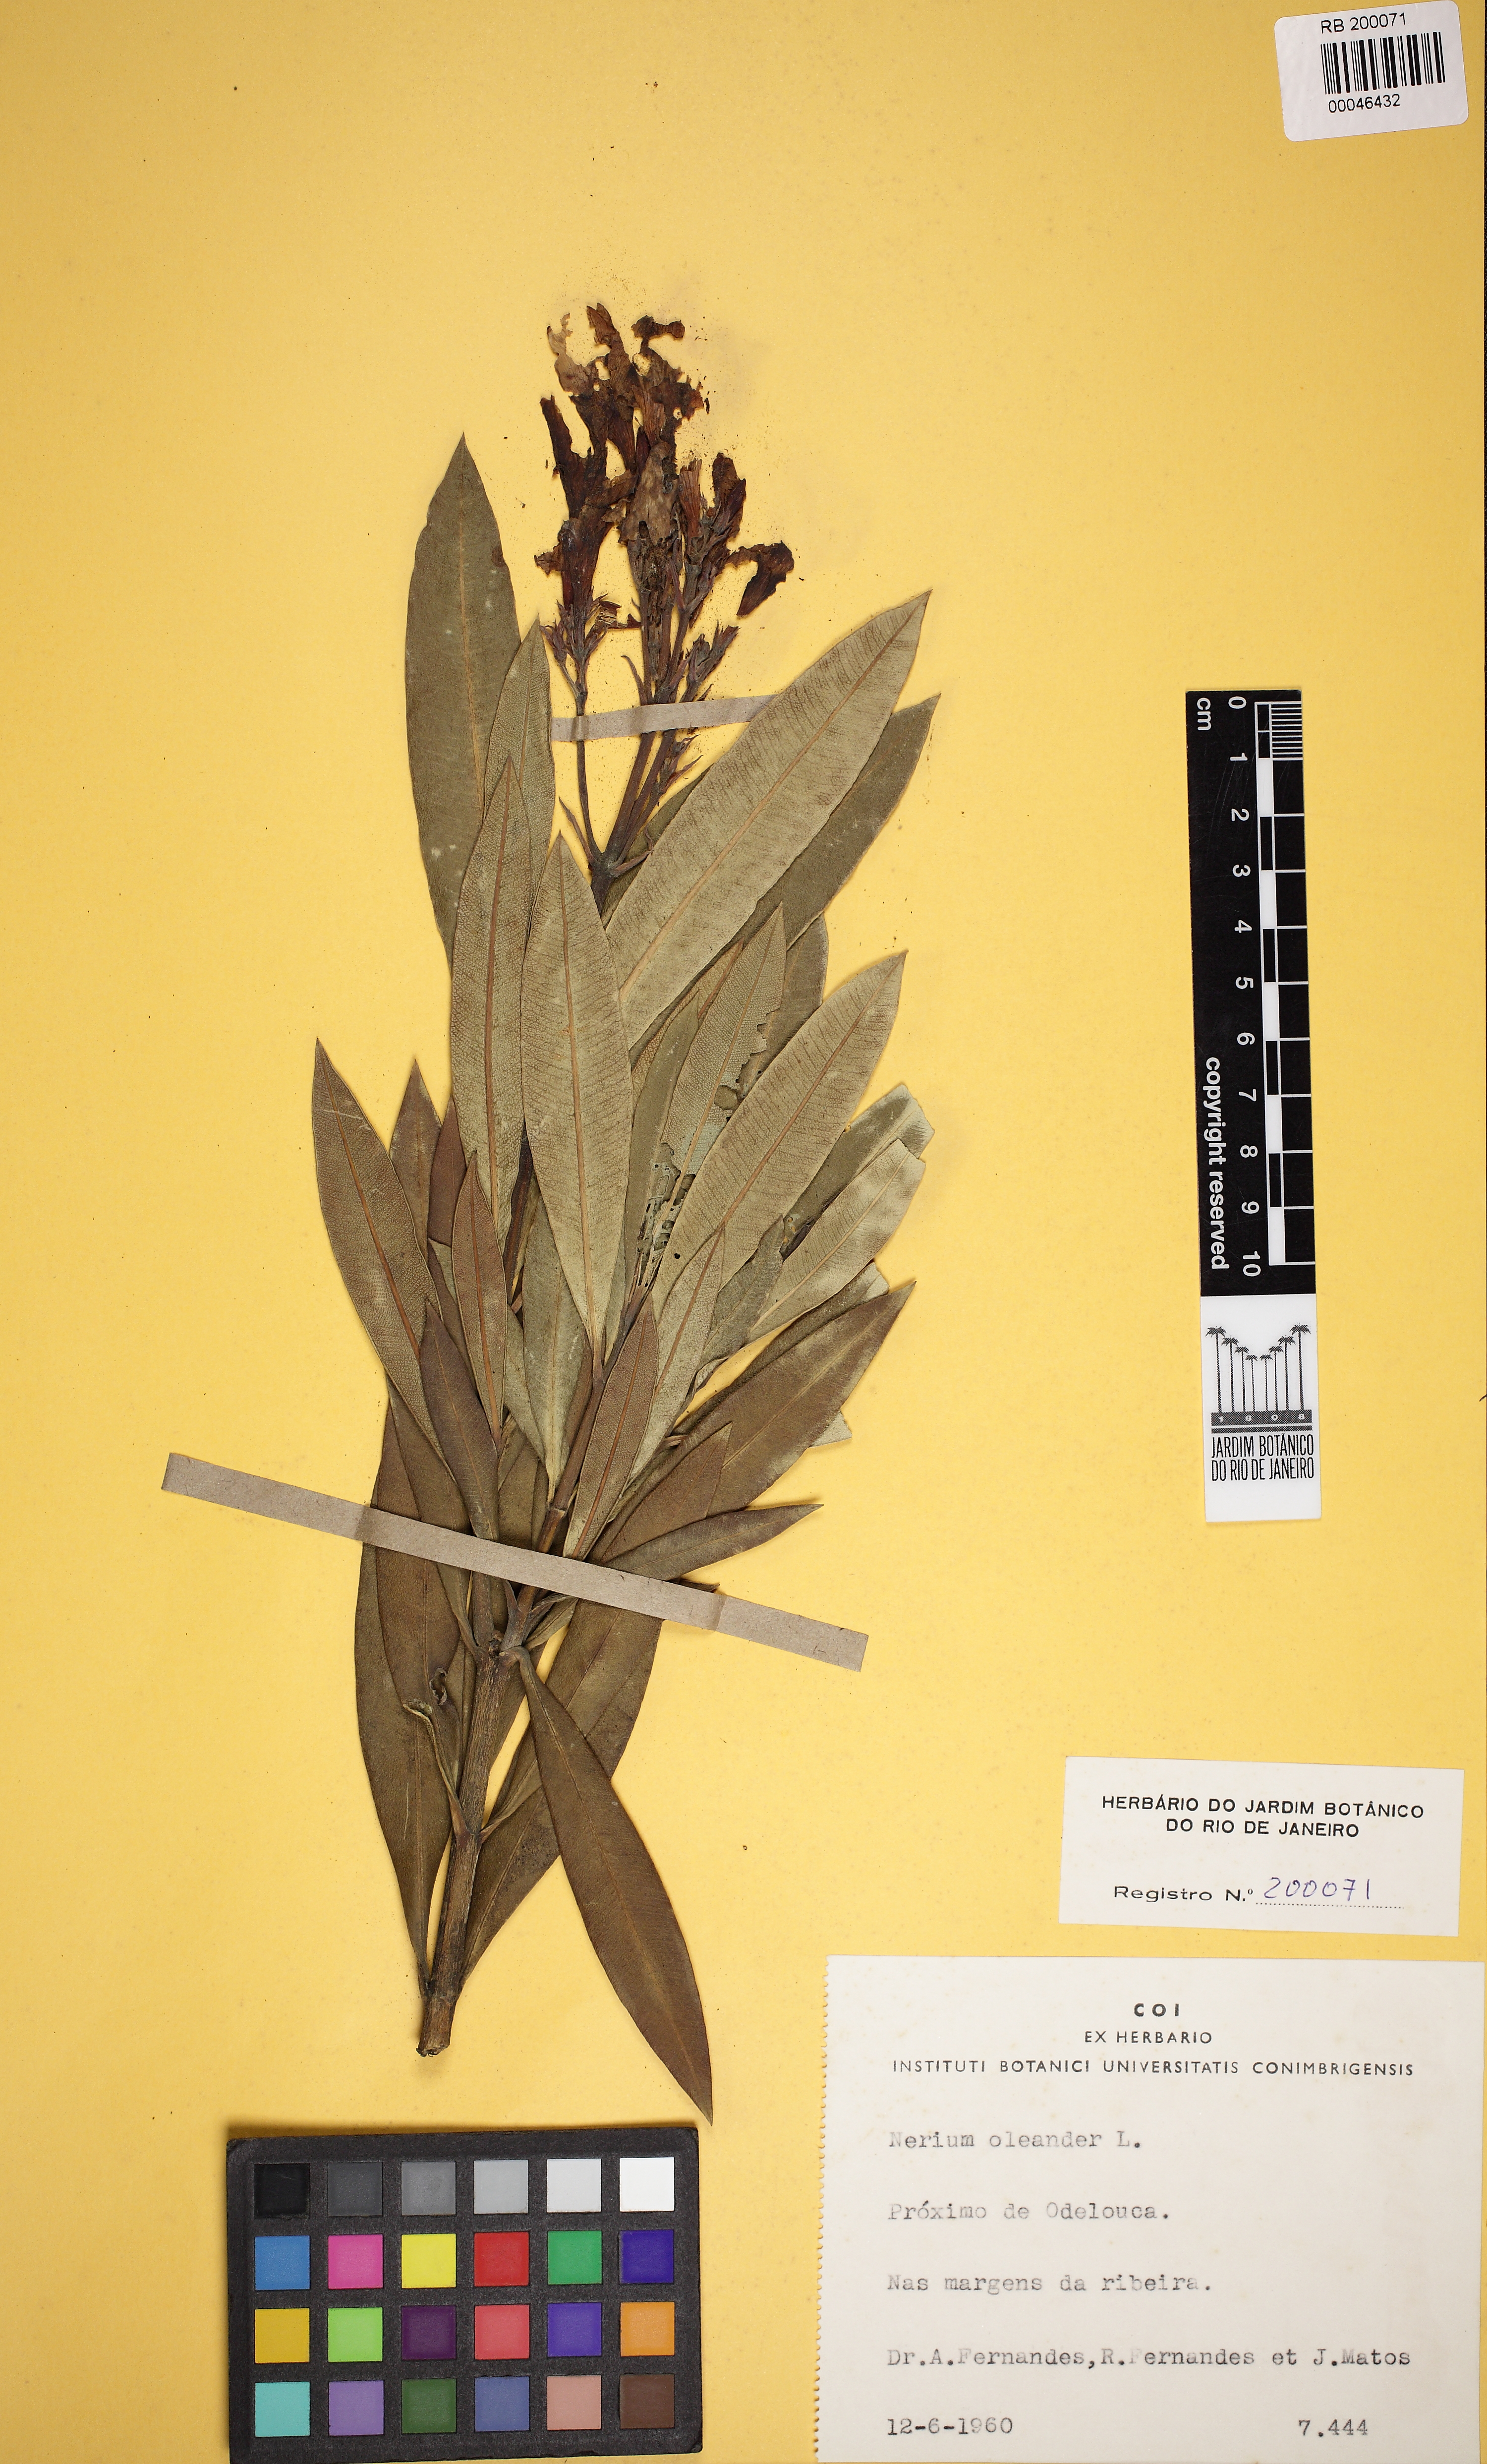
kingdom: Plantae
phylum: Tracheophyta
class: Magnoliopsida
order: Gentianales
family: Apocynaceae
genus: Nerium
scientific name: Nerium oleander
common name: Oleander
